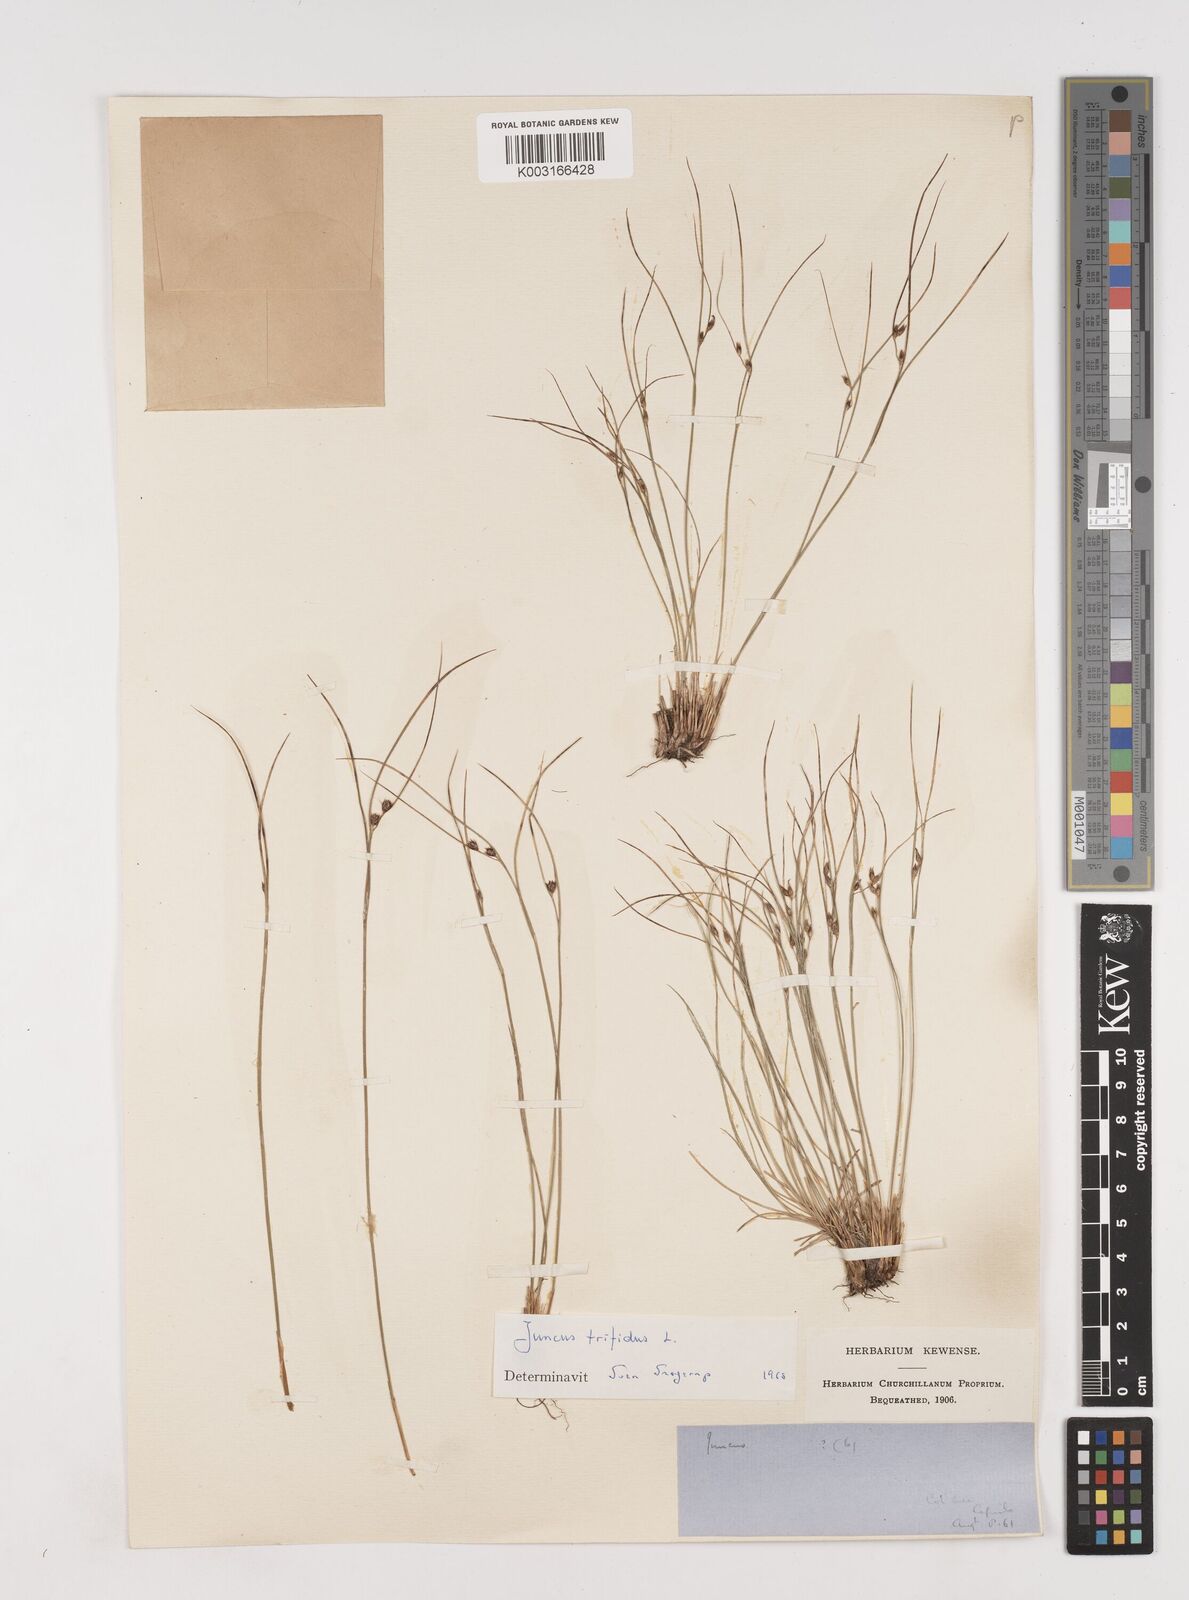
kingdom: Plantae
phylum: Tracheophyta
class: Liliopsida
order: Poales
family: Juncaceae
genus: Oreojuncus
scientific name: Oreojuncus trifidus
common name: Highland rush
